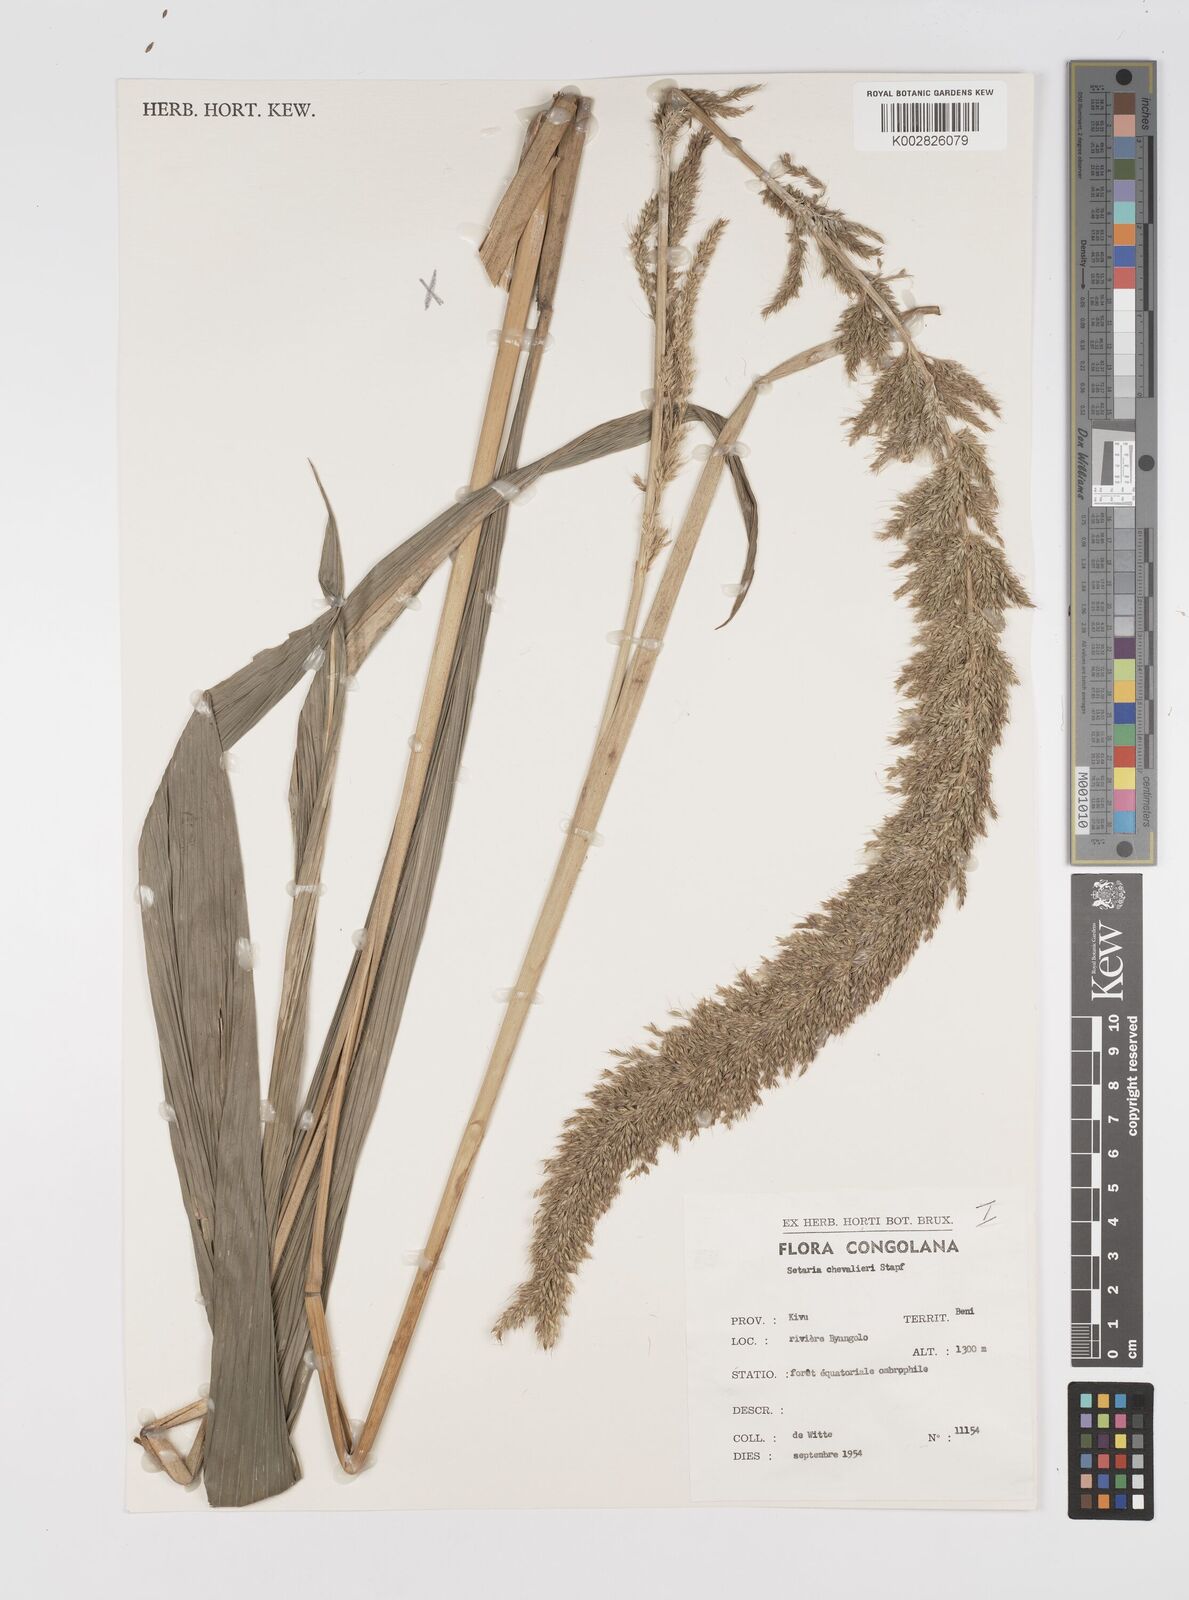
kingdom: Plantae
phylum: Tracheophyta
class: Liliopsida
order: Poales
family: Poaceae
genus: Setaria
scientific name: Setaria poiretiana
